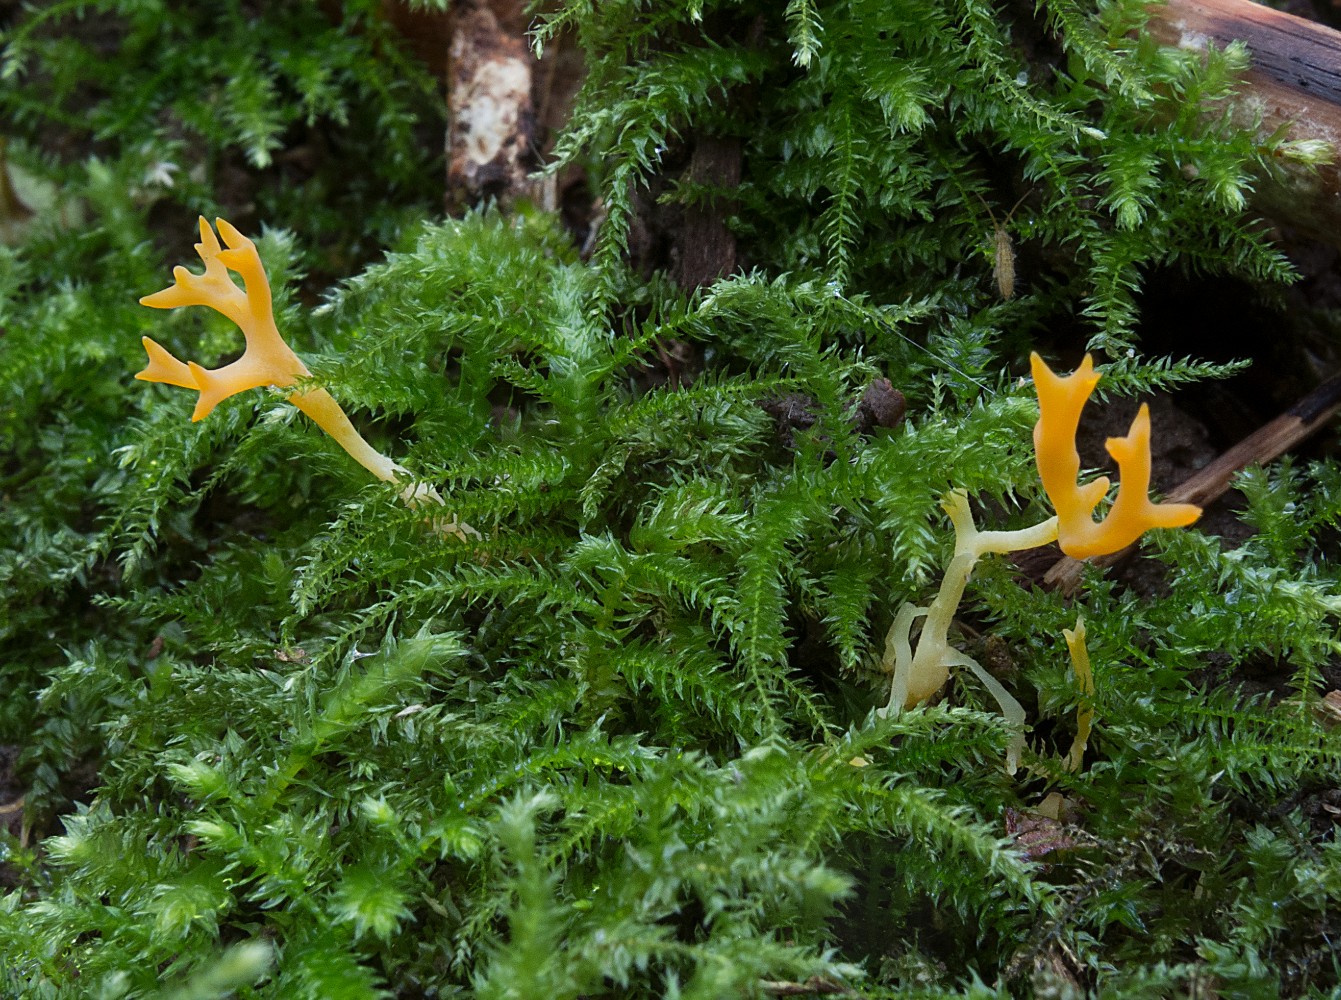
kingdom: Fungi
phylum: Basidiomycota
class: Agaricomycetes
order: Agaricales
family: Clavariaceae
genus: Ramariopsis
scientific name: Ramariopsis crocea
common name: gylden køllesvamp
